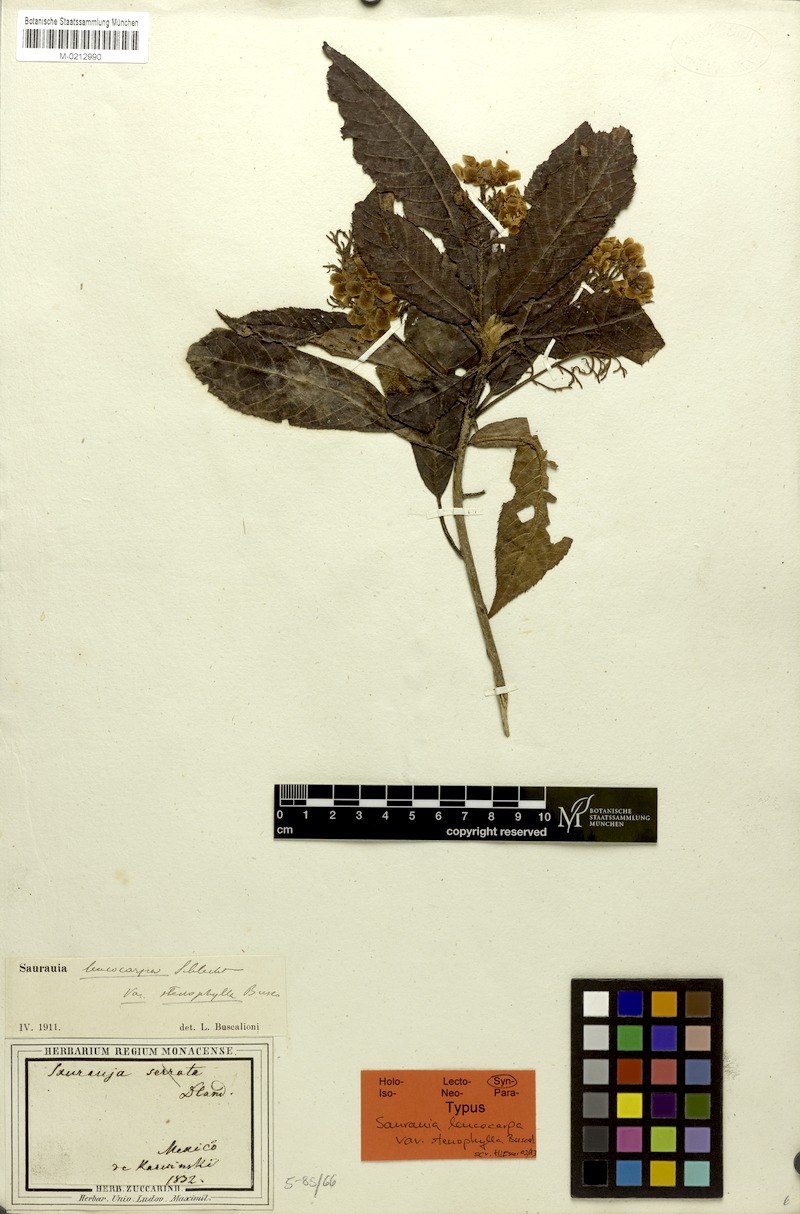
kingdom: Plantae
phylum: Tracheophyta
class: Magnoliopsida
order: Ericales
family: Actinidiaceae
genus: Saurauia
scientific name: Saurauia oreophila
